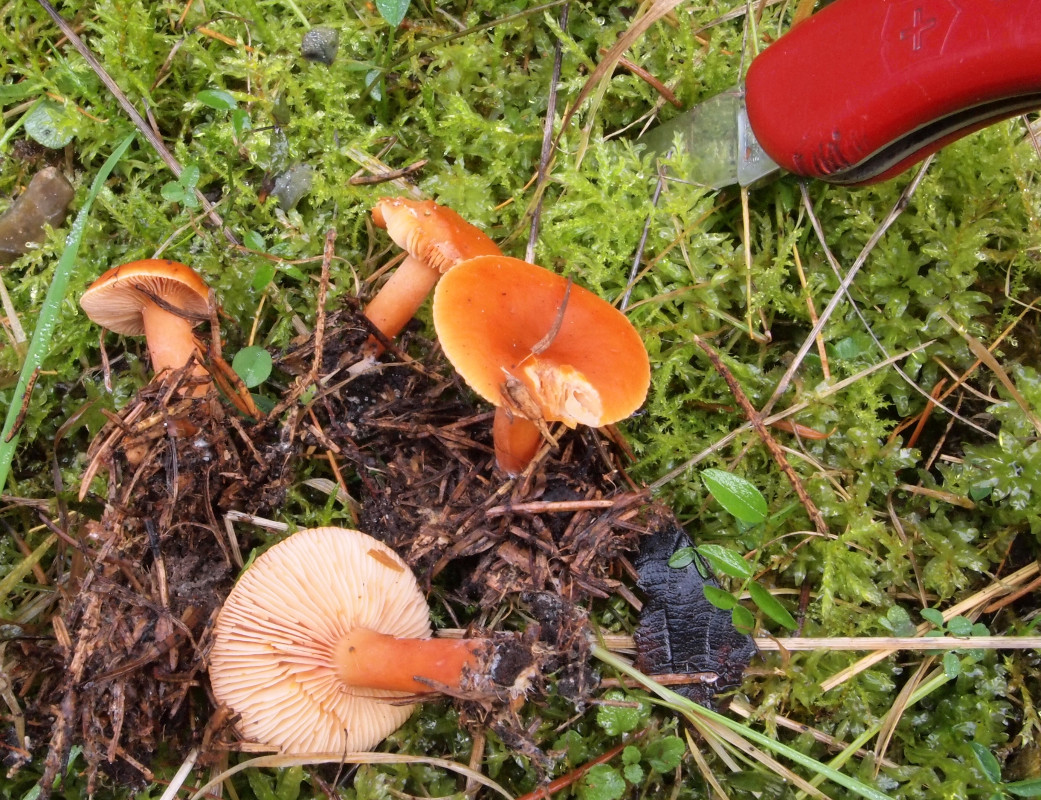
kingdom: Fungi
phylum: Basidiomycota
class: Agaricomycetes
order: Russulales
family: Russulaceae
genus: Lactarius
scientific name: Lactarius aurantiacus
